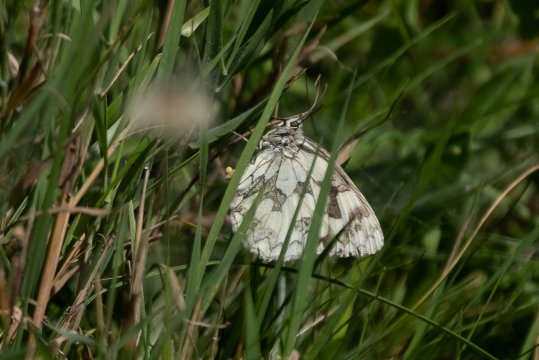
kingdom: Animalia
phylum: Arthropoda
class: Insecta
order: Lepidoptera
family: Pieridae
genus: Hesperocharis
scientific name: Hesperocharis graphites
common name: Marbled White
